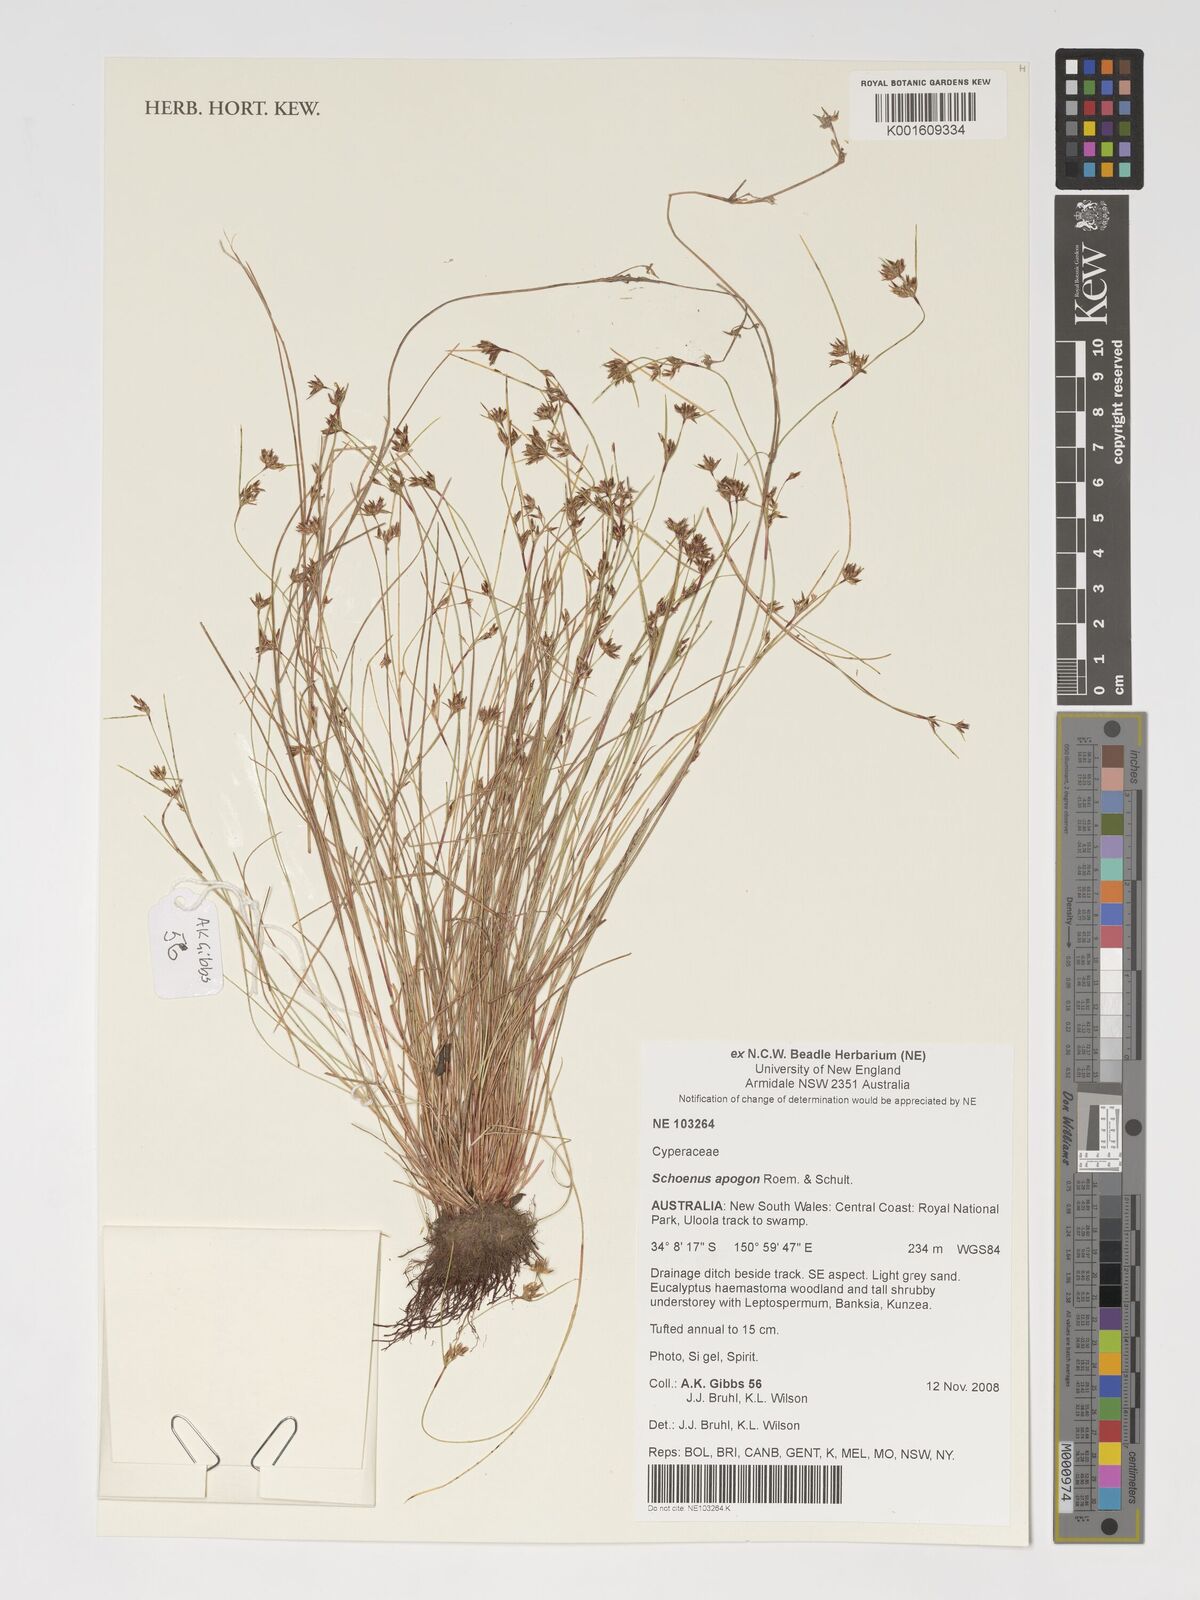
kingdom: Plantae
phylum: Tracheophyta
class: Liliopsida
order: Poales
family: Cyperaceae
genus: Schoenus
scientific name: Schoenus apogon
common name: Smooth bogrush
